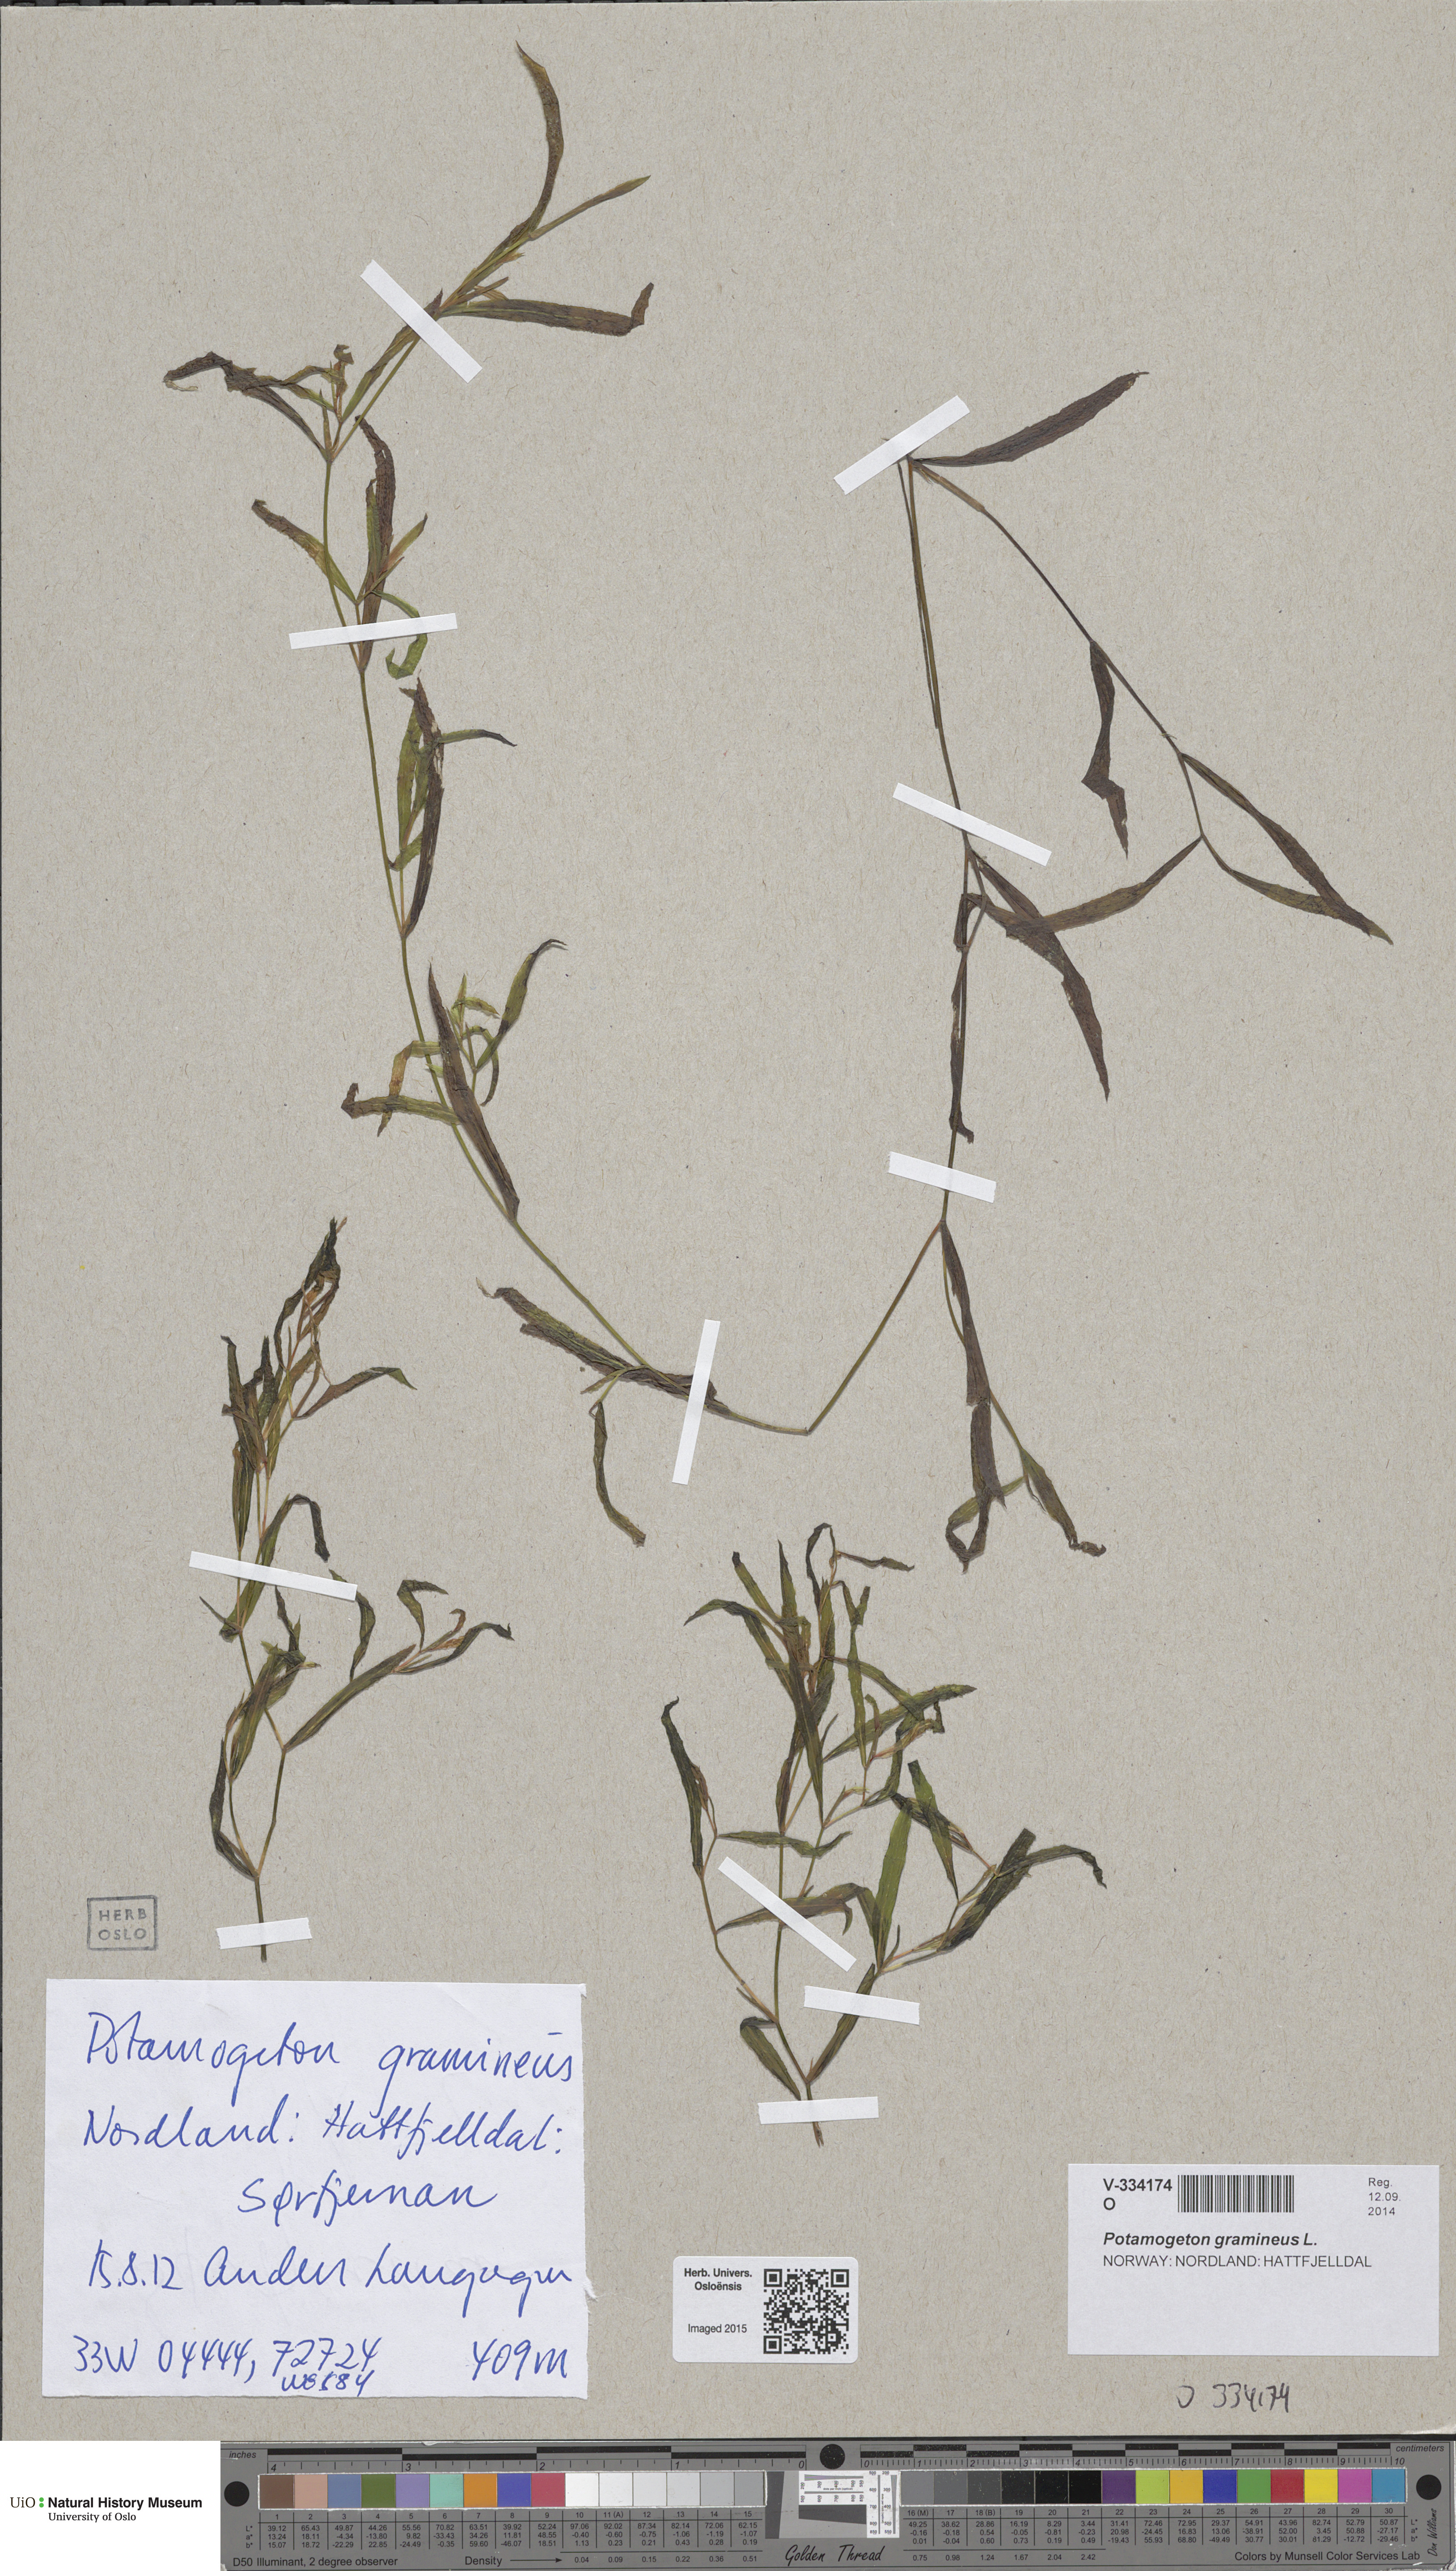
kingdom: Plantae
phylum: Tracheophyta
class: Liliopsida
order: Alismatales
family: Potamogetonaceae
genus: Potamogeton
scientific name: Potamogeton gramineus
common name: Various-leaved pondweed
